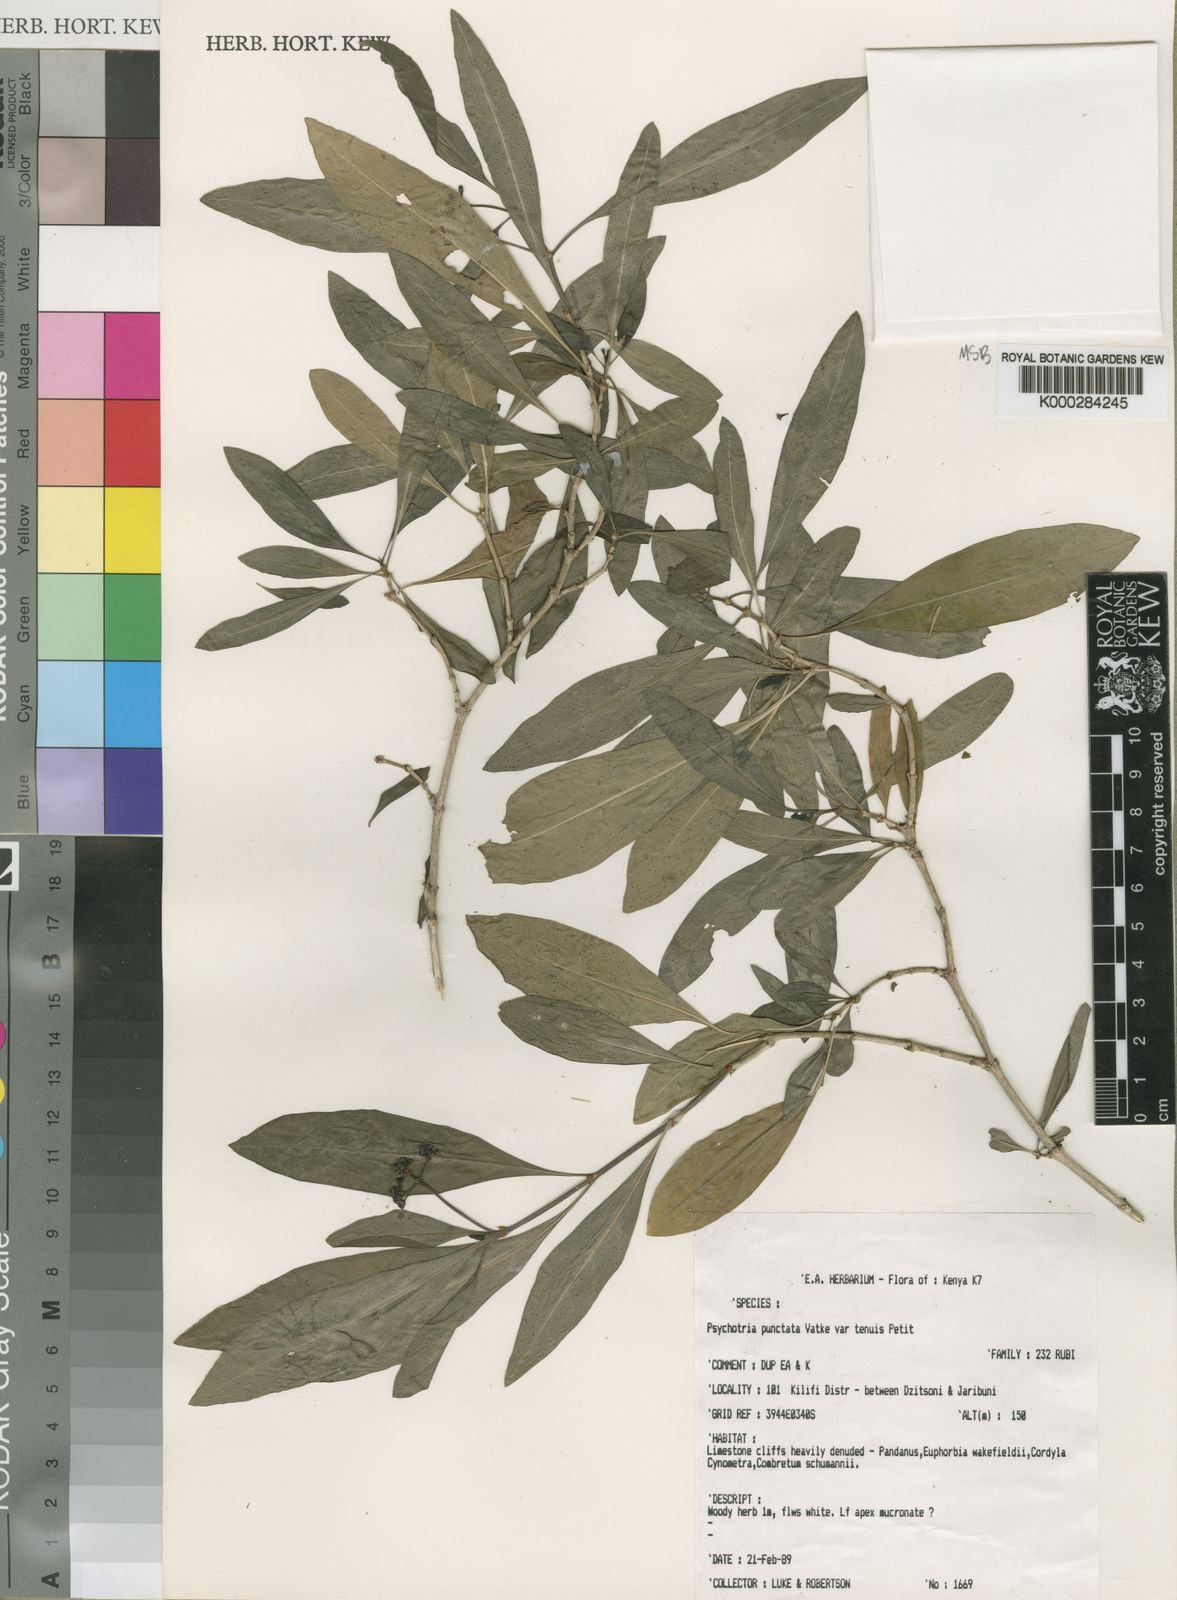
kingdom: Plantae
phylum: Tracheophyta
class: Magnoliopsida
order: Gentianales
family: Rubiaceae
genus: Psychotria
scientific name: Psychotria punctata
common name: Dotted wild coffee
